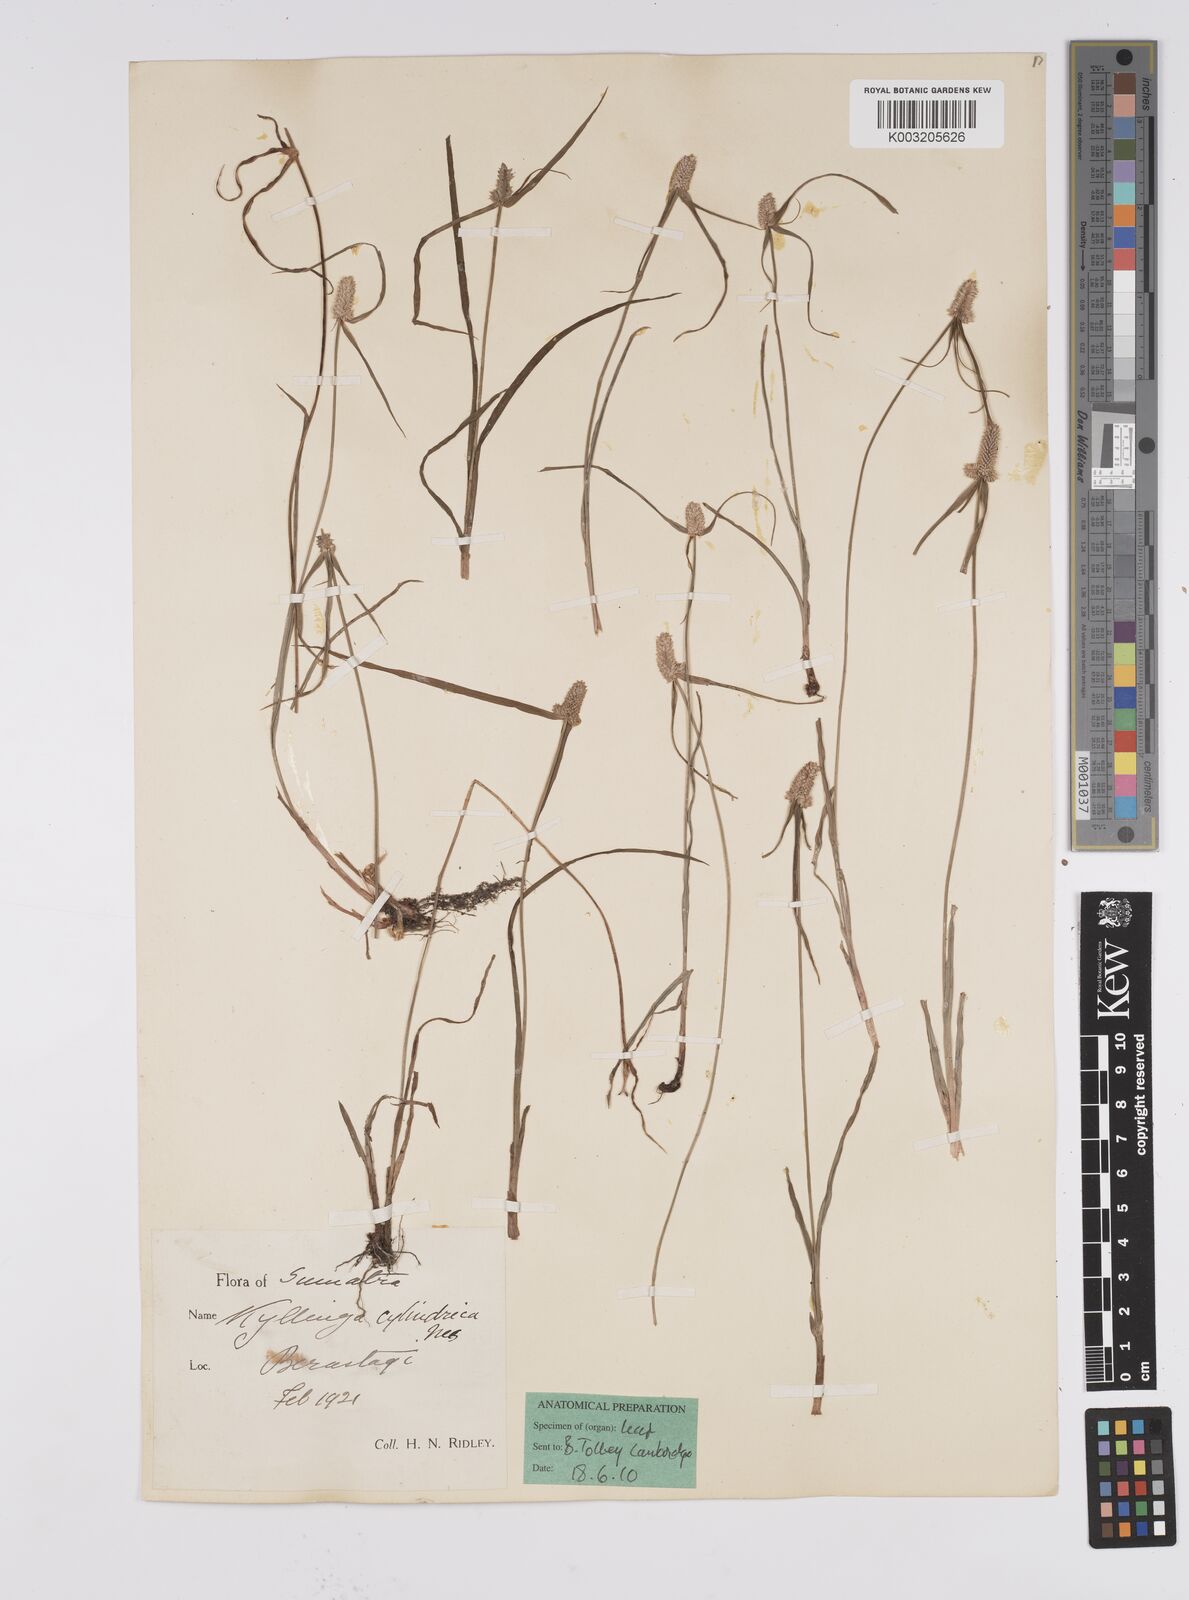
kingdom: Plantae
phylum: Tracheophyta
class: Liliopsida
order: Poales
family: Cyperaceae
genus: Cyperus
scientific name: Cyperus
